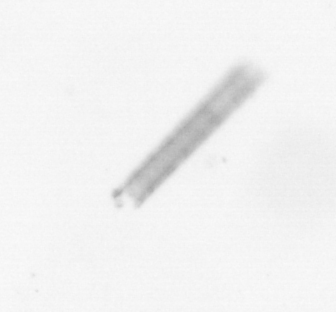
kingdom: Chromista
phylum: Ochrophyta
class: Bacillariophyceae
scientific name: Bacillariophyceae
